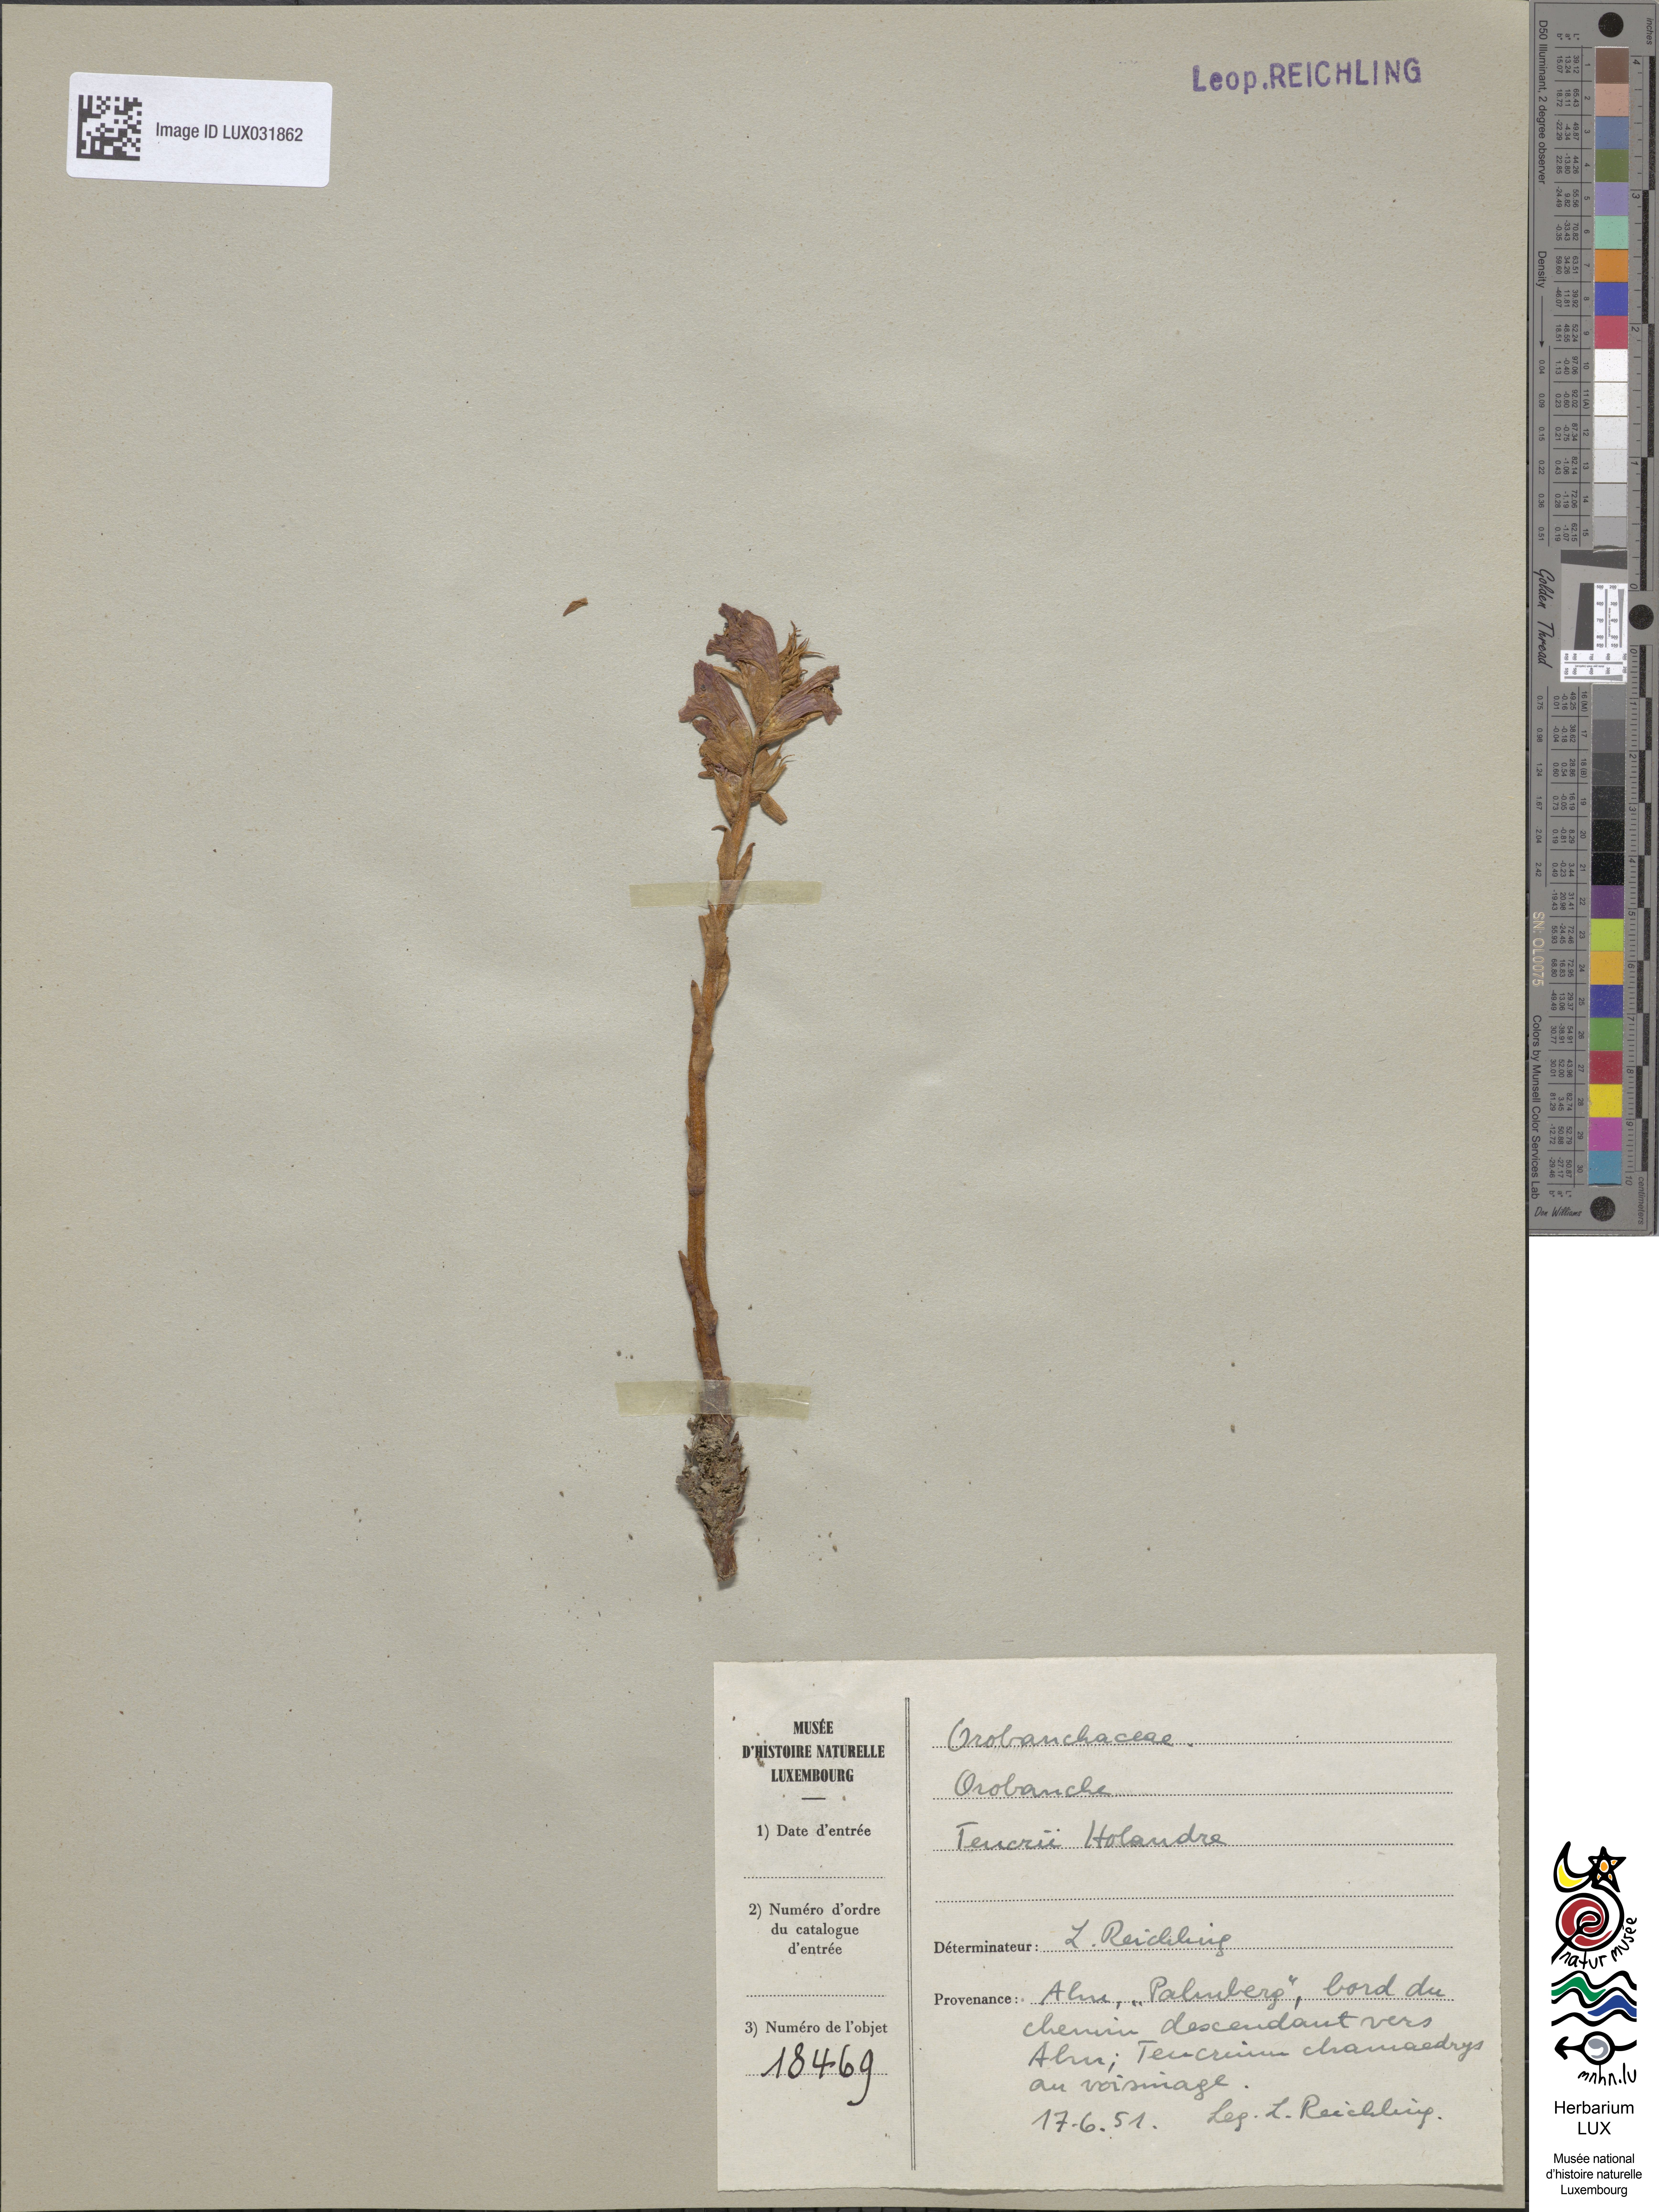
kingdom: Plantae
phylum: Tracheophyta
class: Magnoliopsida
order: Lamiales
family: Orobanchaceae
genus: Orobanche
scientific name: Orobanche teucrii
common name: Germander broomrape
